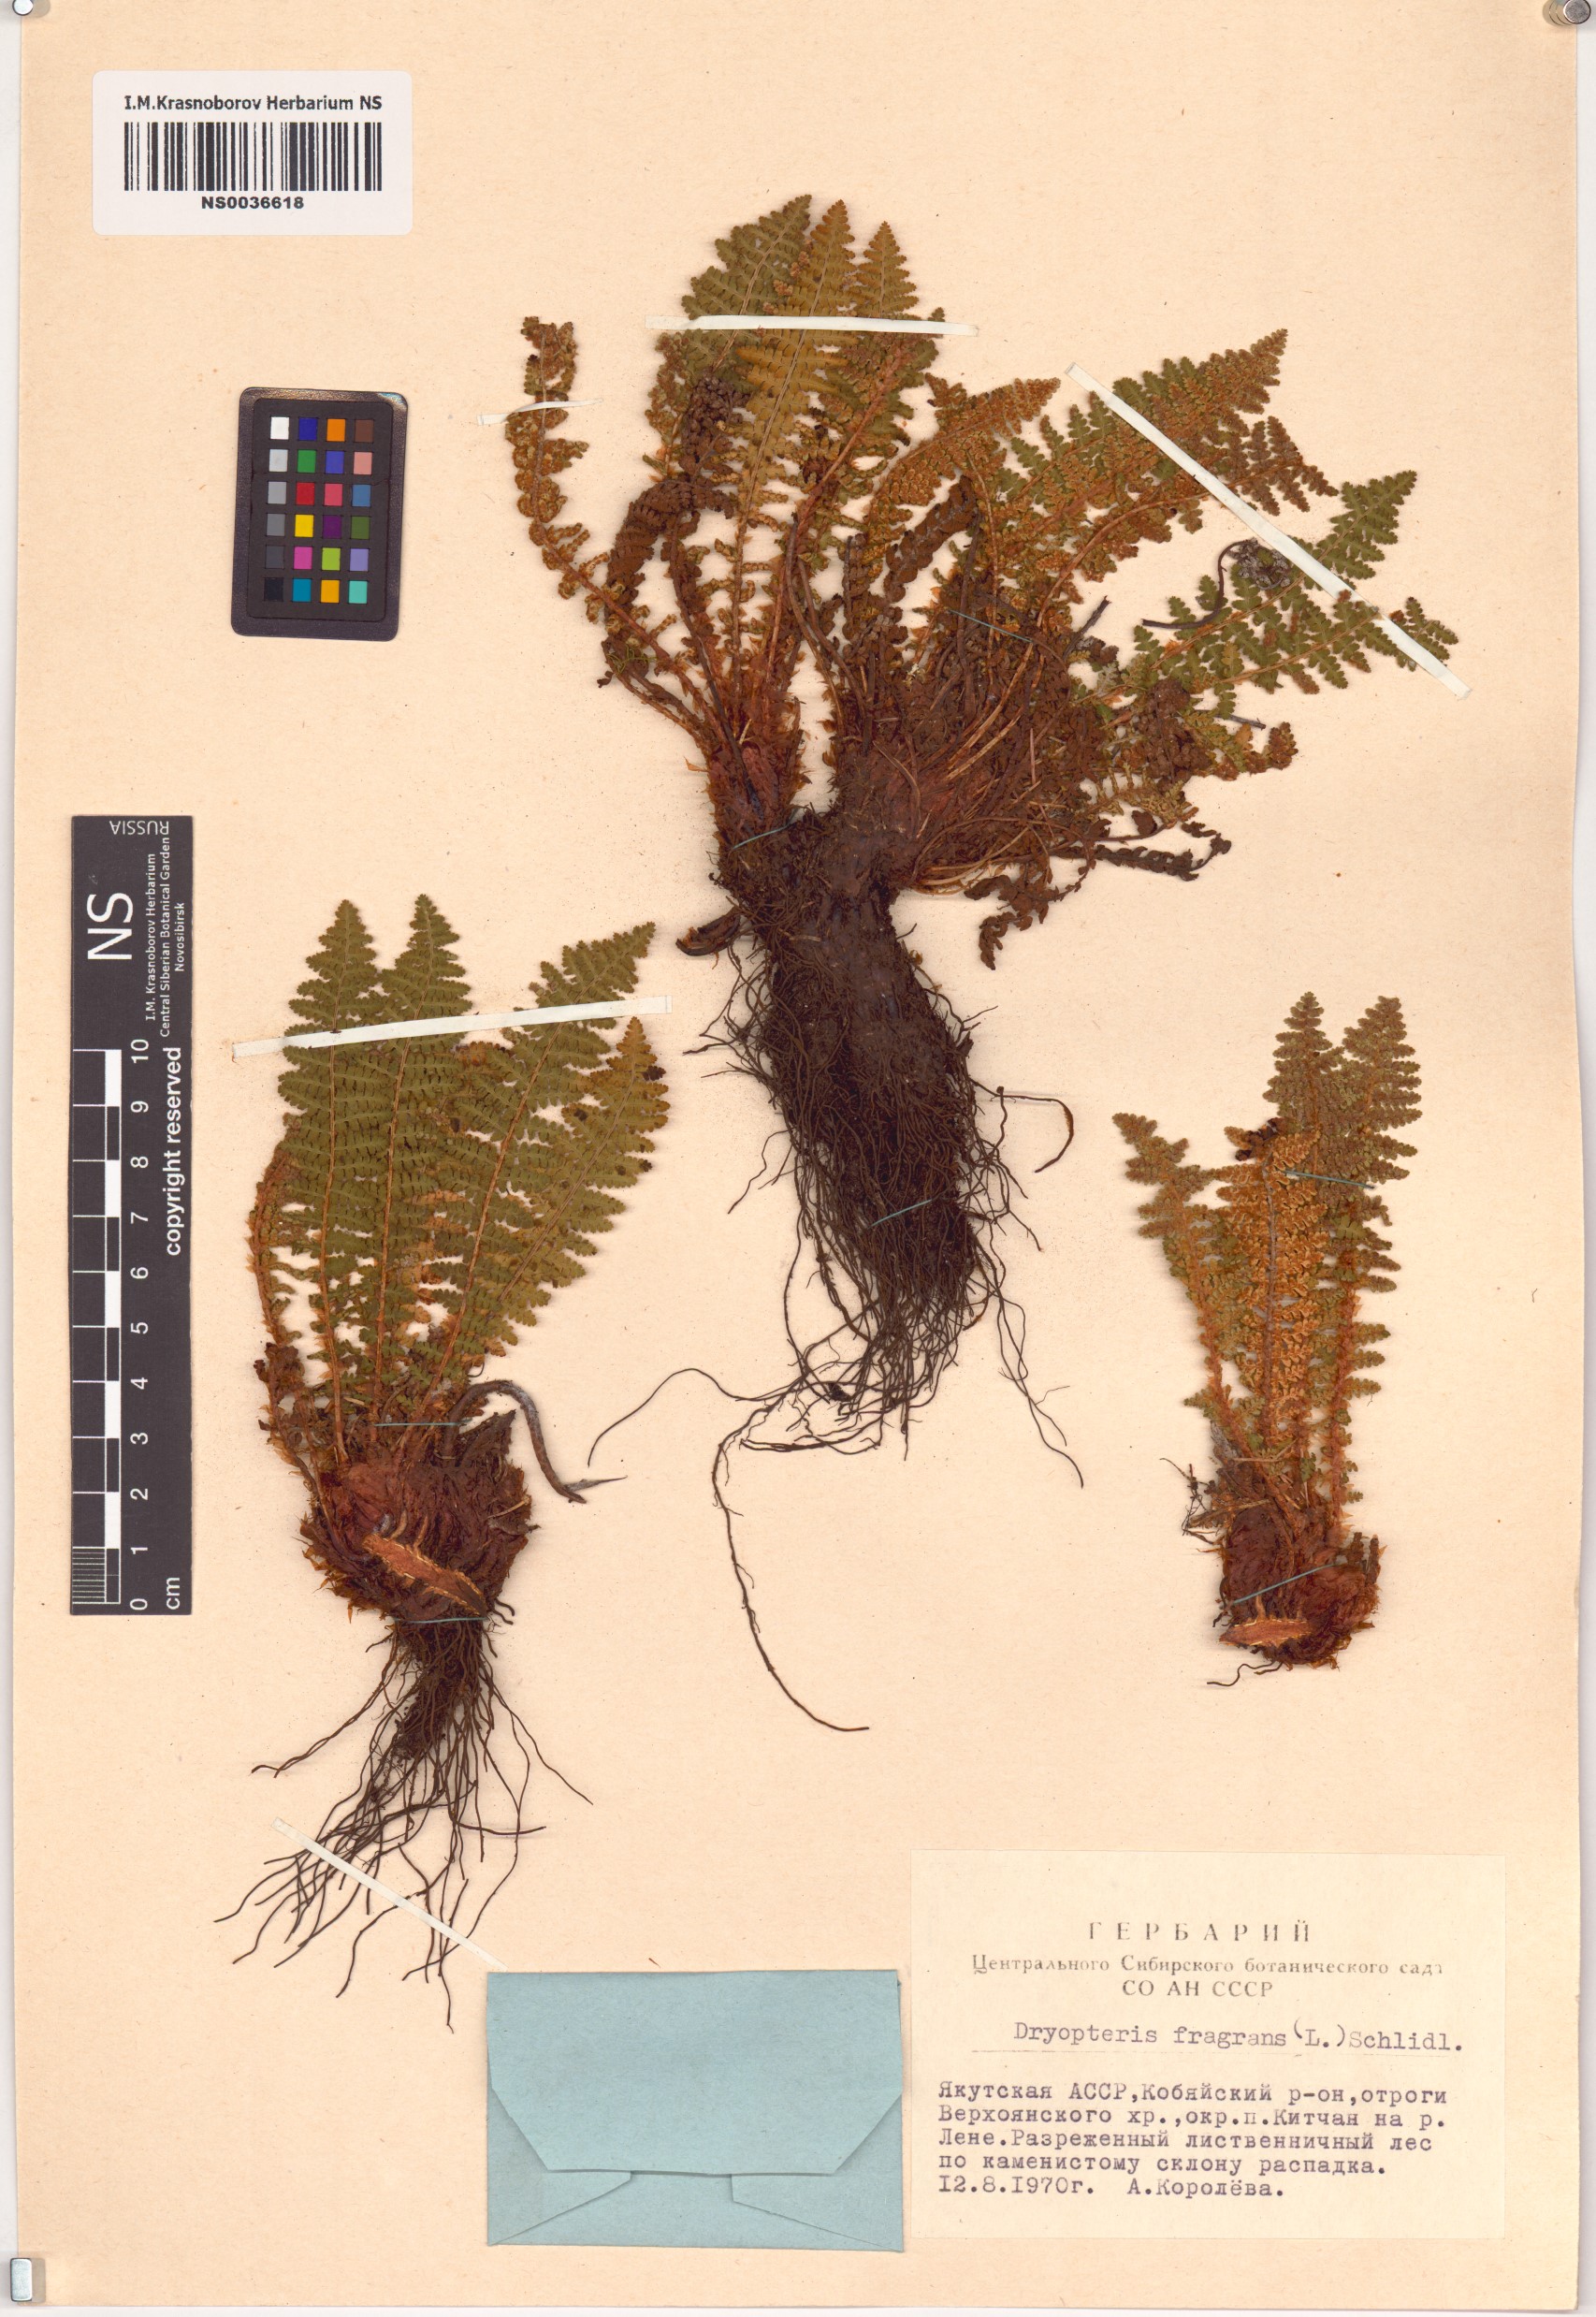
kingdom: Plantae
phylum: Tracheophyta
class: Polypodiopsida
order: Polypodiales
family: Dryopteridaceae
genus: Dryopteris
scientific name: Dryopteris fragrans
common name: Fragrant wood fern
